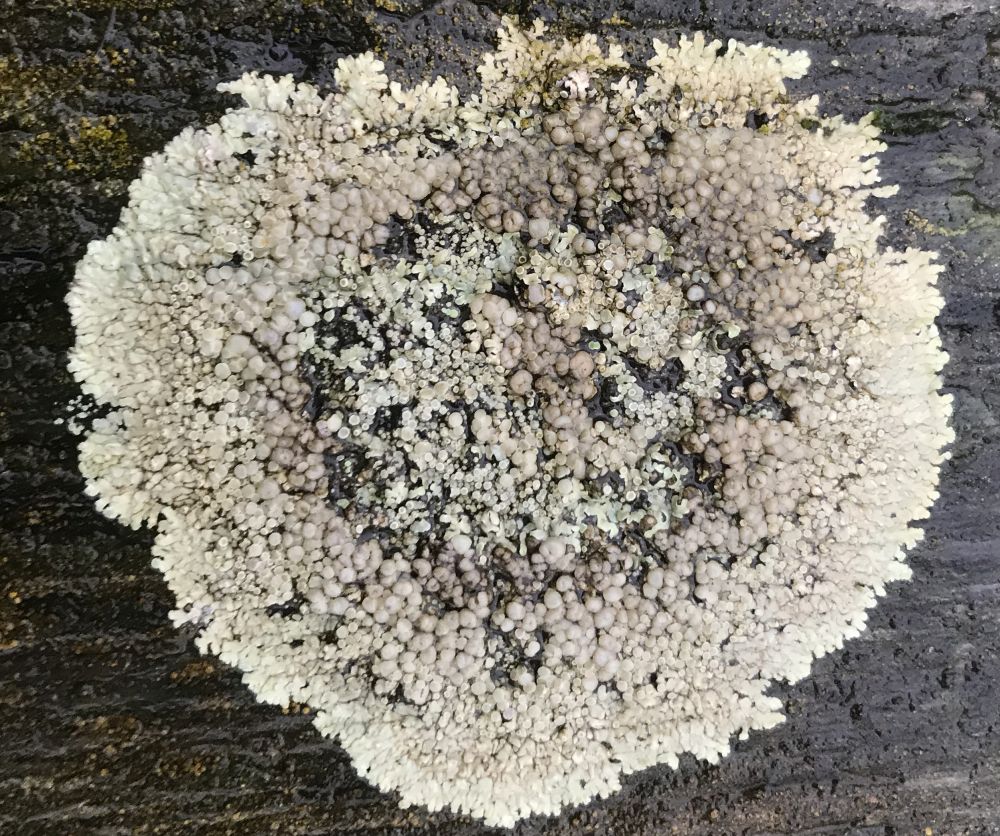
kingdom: Fungi
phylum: Ascomycota
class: Lecanoromycetes
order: Lecanorales
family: Lecanoraceae
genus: Protoparmeliopsis
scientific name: Protoparmeliopsis muralis
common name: randfliget kantskivelav
